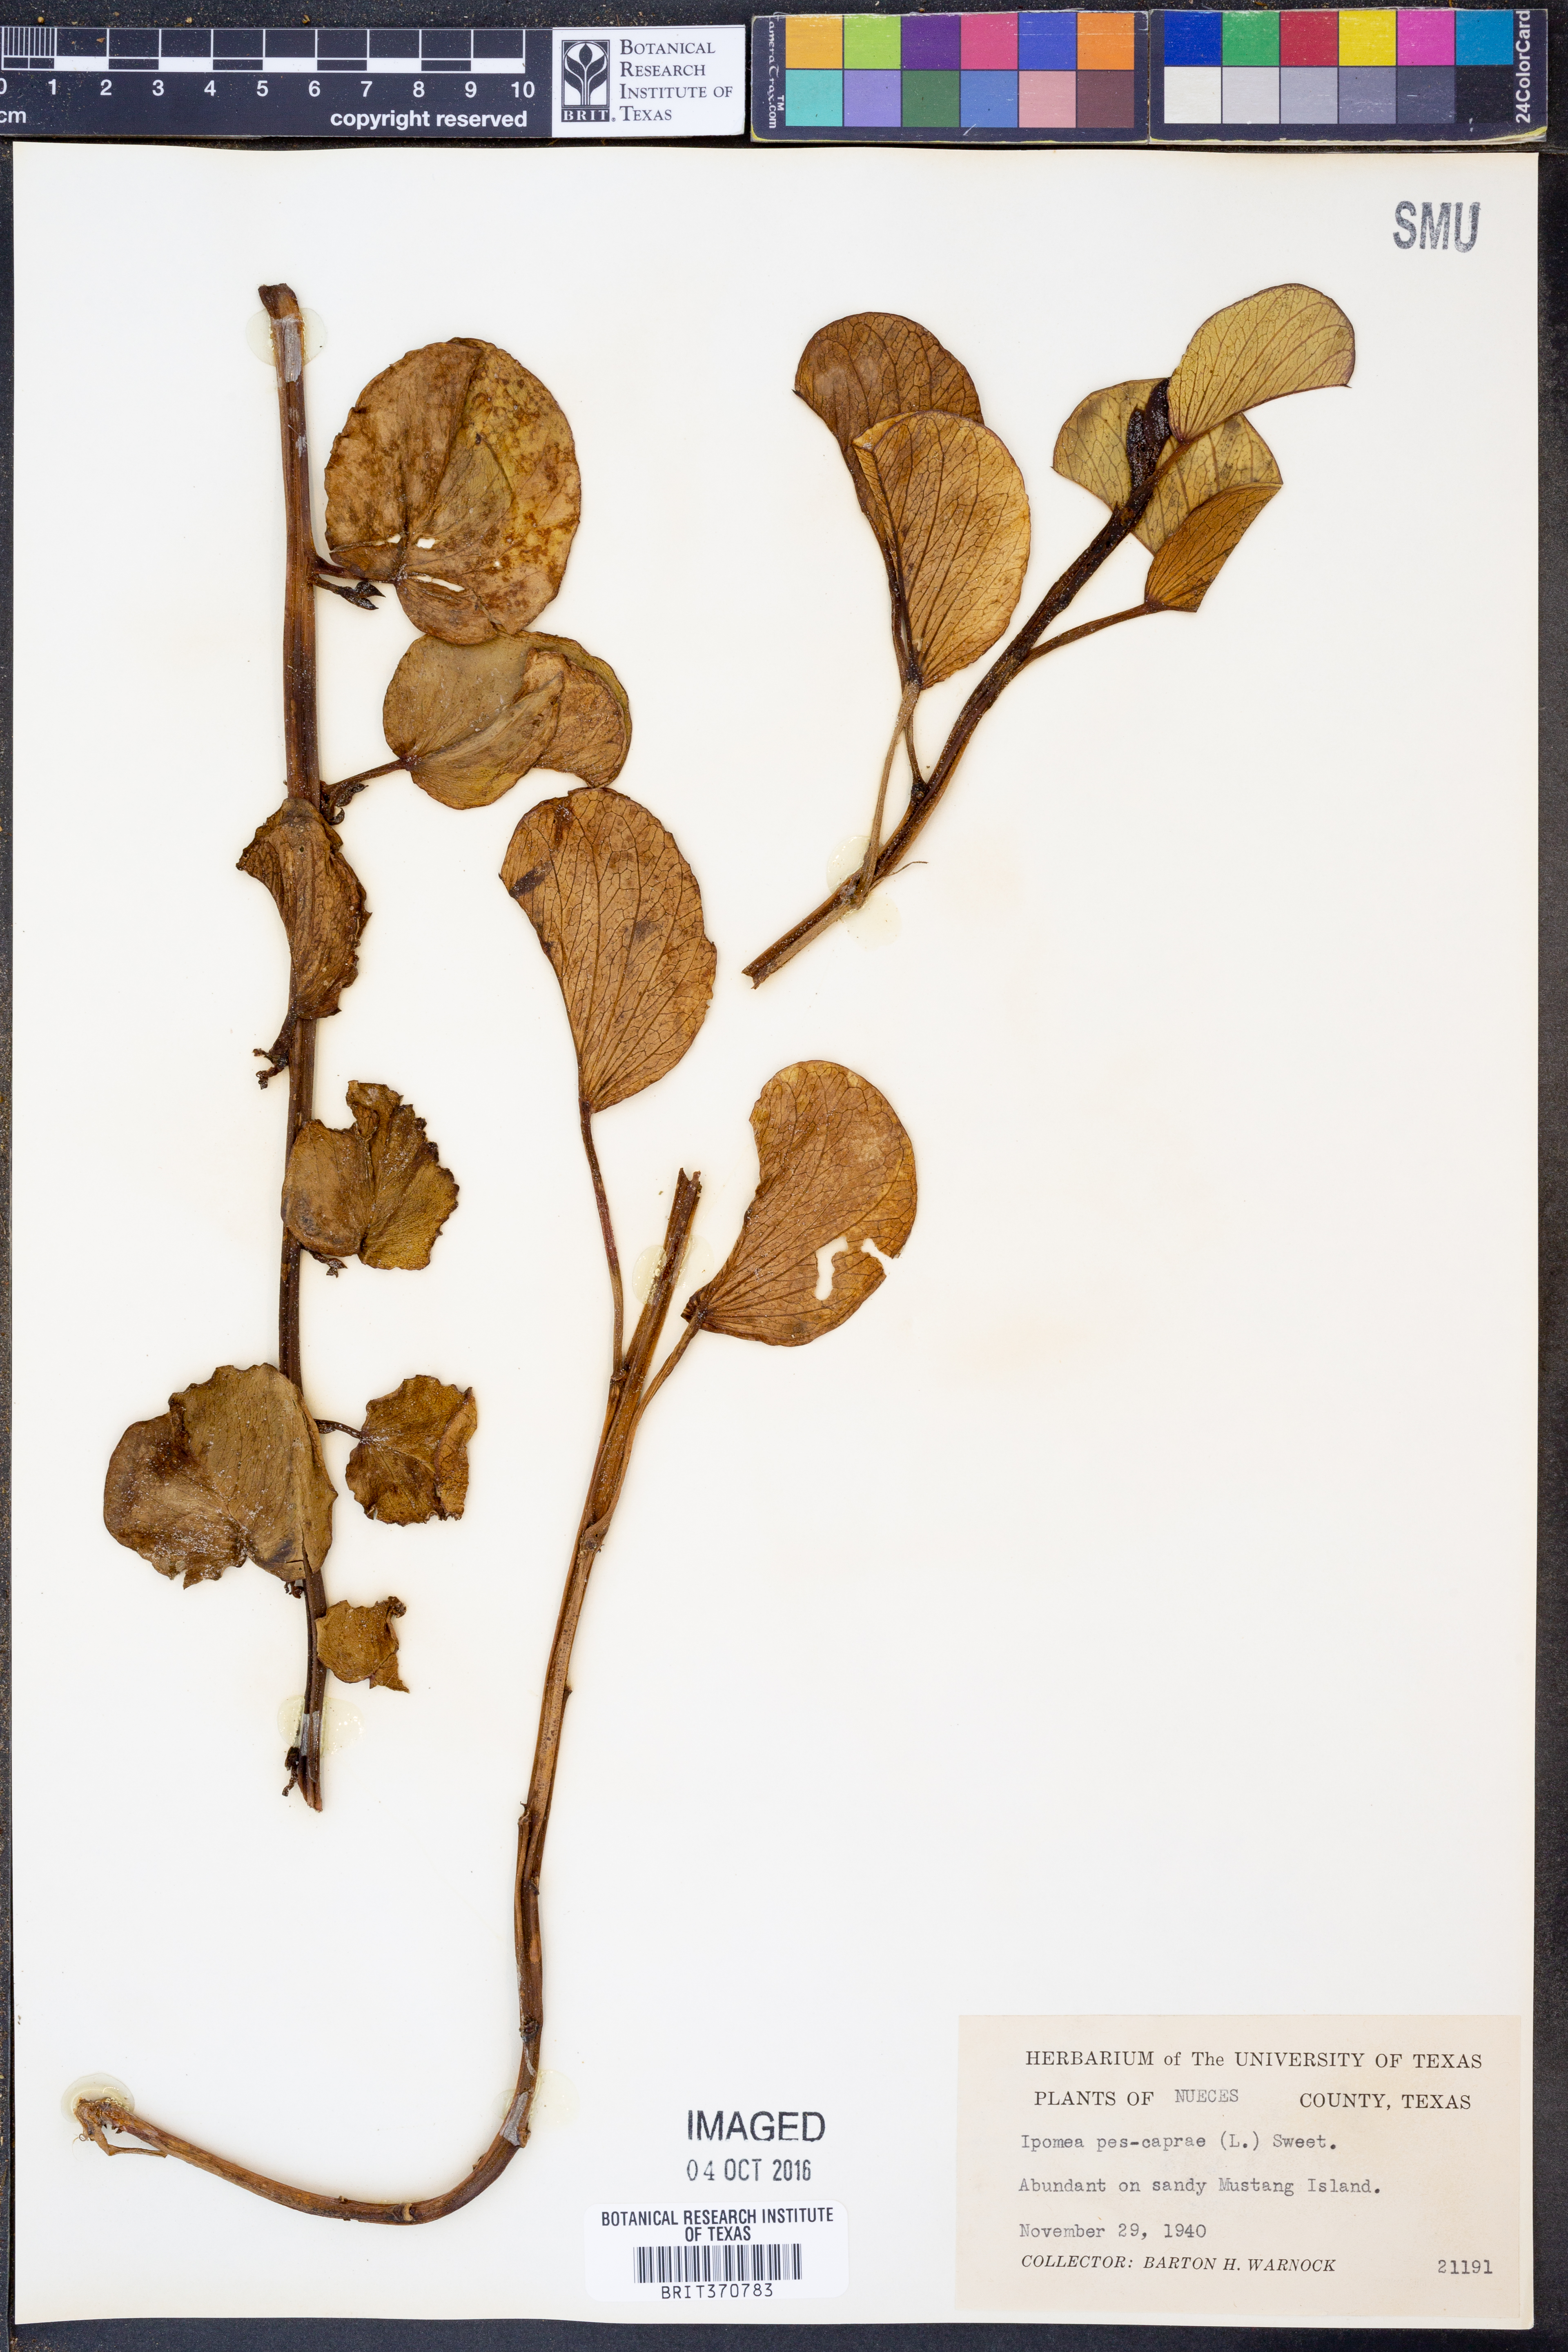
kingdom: Plantae
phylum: Tracheophyta
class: Magnoliopsida
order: Solanales
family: Convolvulaceae
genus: Ipomoea
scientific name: Ipomoea pes-caprae
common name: Beach morning glory
